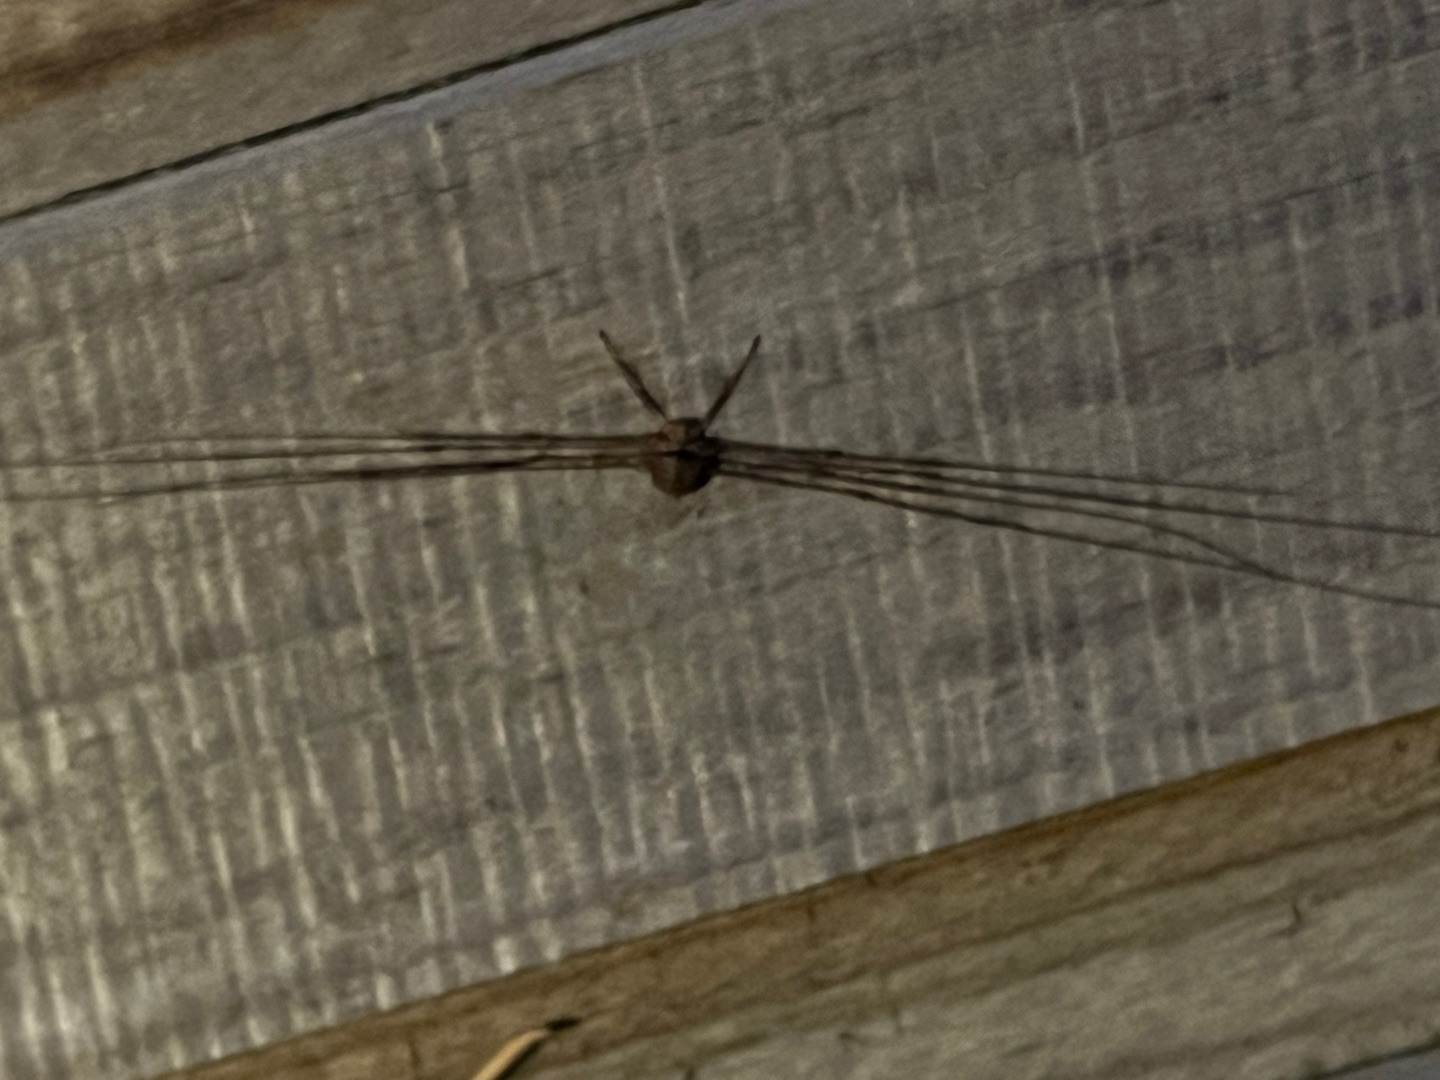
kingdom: Animalia
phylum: Arthropoda
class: Arachnida
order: Opiliones
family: Phalangiidae
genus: Dicranopalpus
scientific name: Dicranopalpus ramosus
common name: Gaffelmejer
